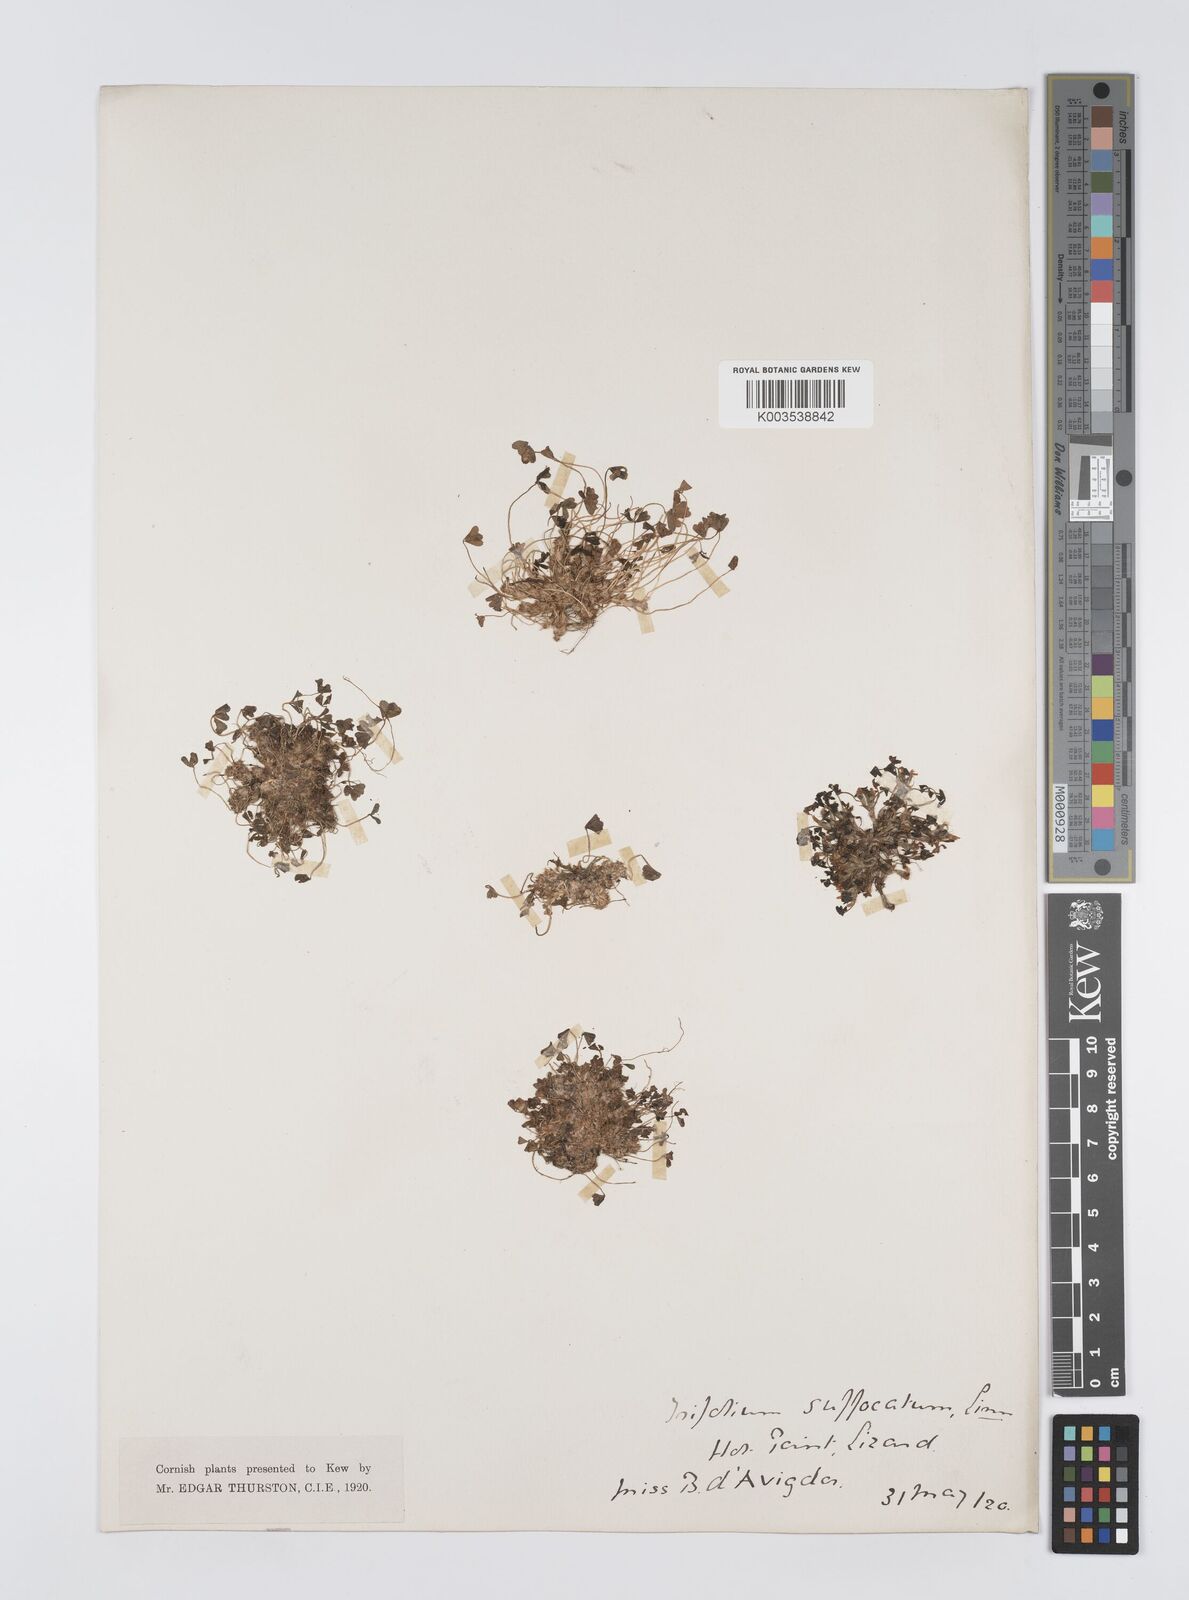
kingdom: Plantae
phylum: Tracheophyta
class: Magnoliopsida
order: Fabales
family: Fabaceae
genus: Trifolium
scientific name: Trifolium suffocatum
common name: Suffocated clover
